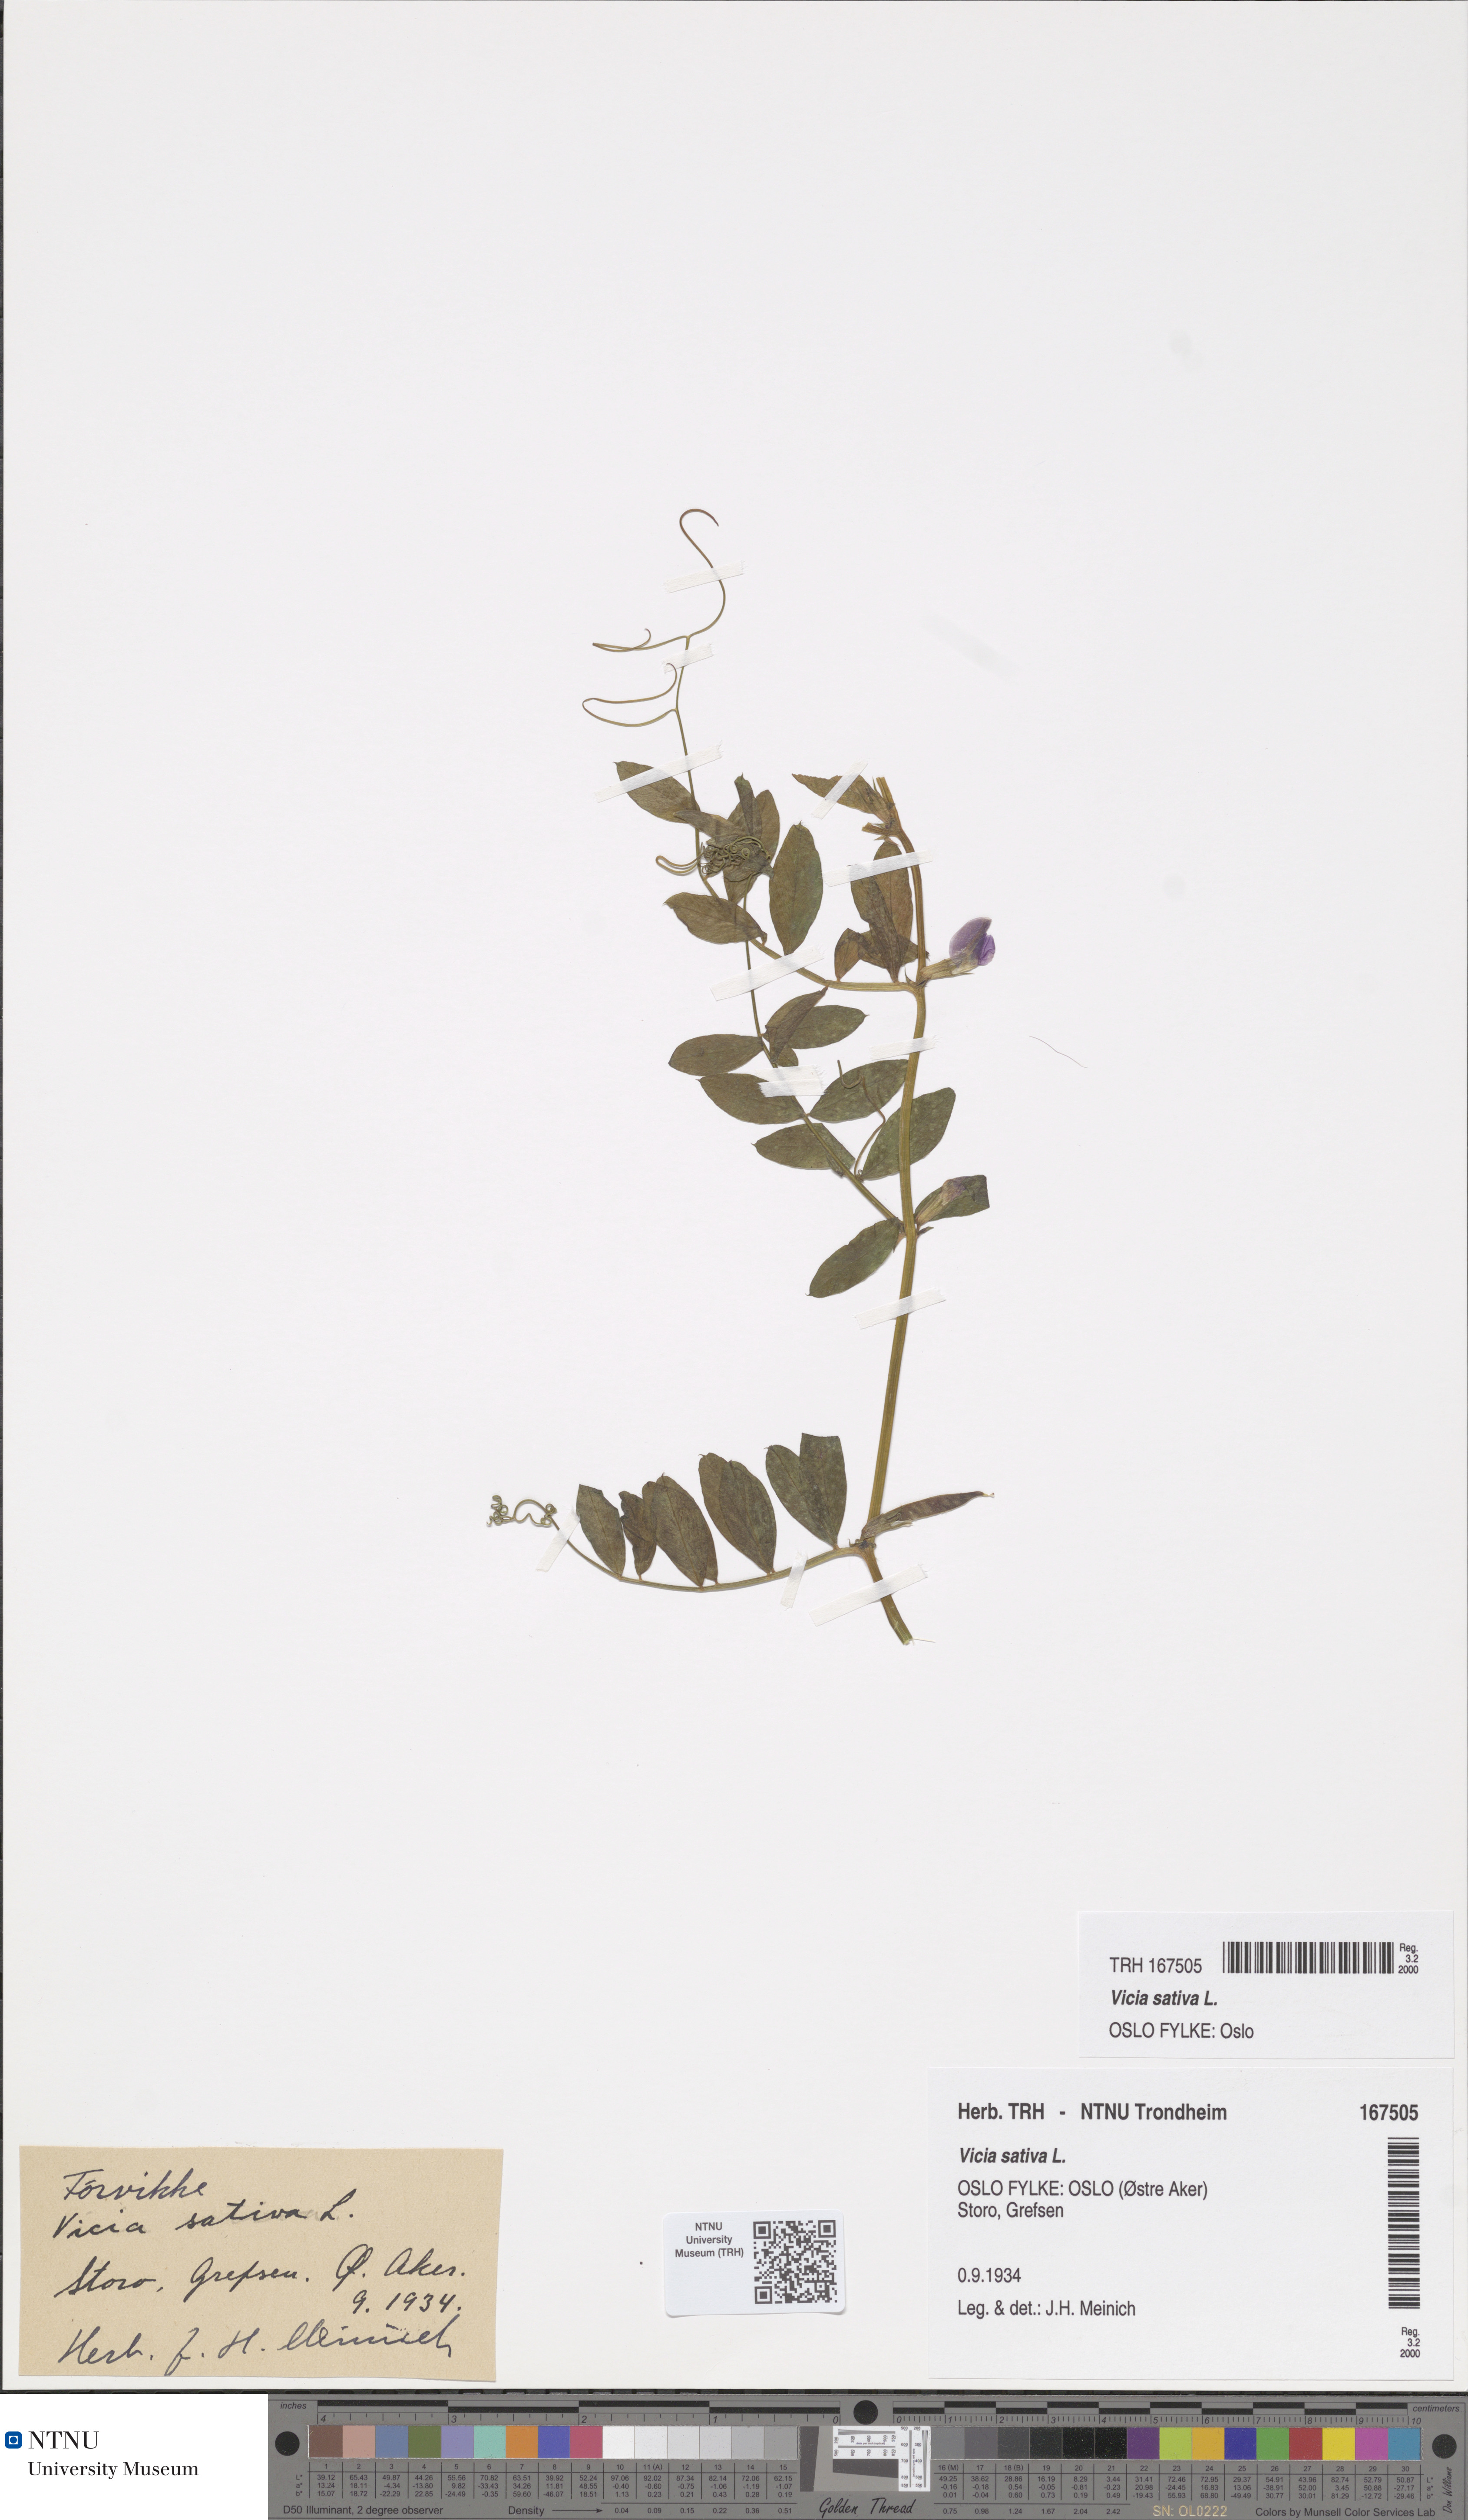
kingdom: Plantae
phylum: Tracheophyta
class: Magnoliopsida
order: Fabales
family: Fabaceae
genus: Vicia
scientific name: Vicia sativa
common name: Garden vetch
